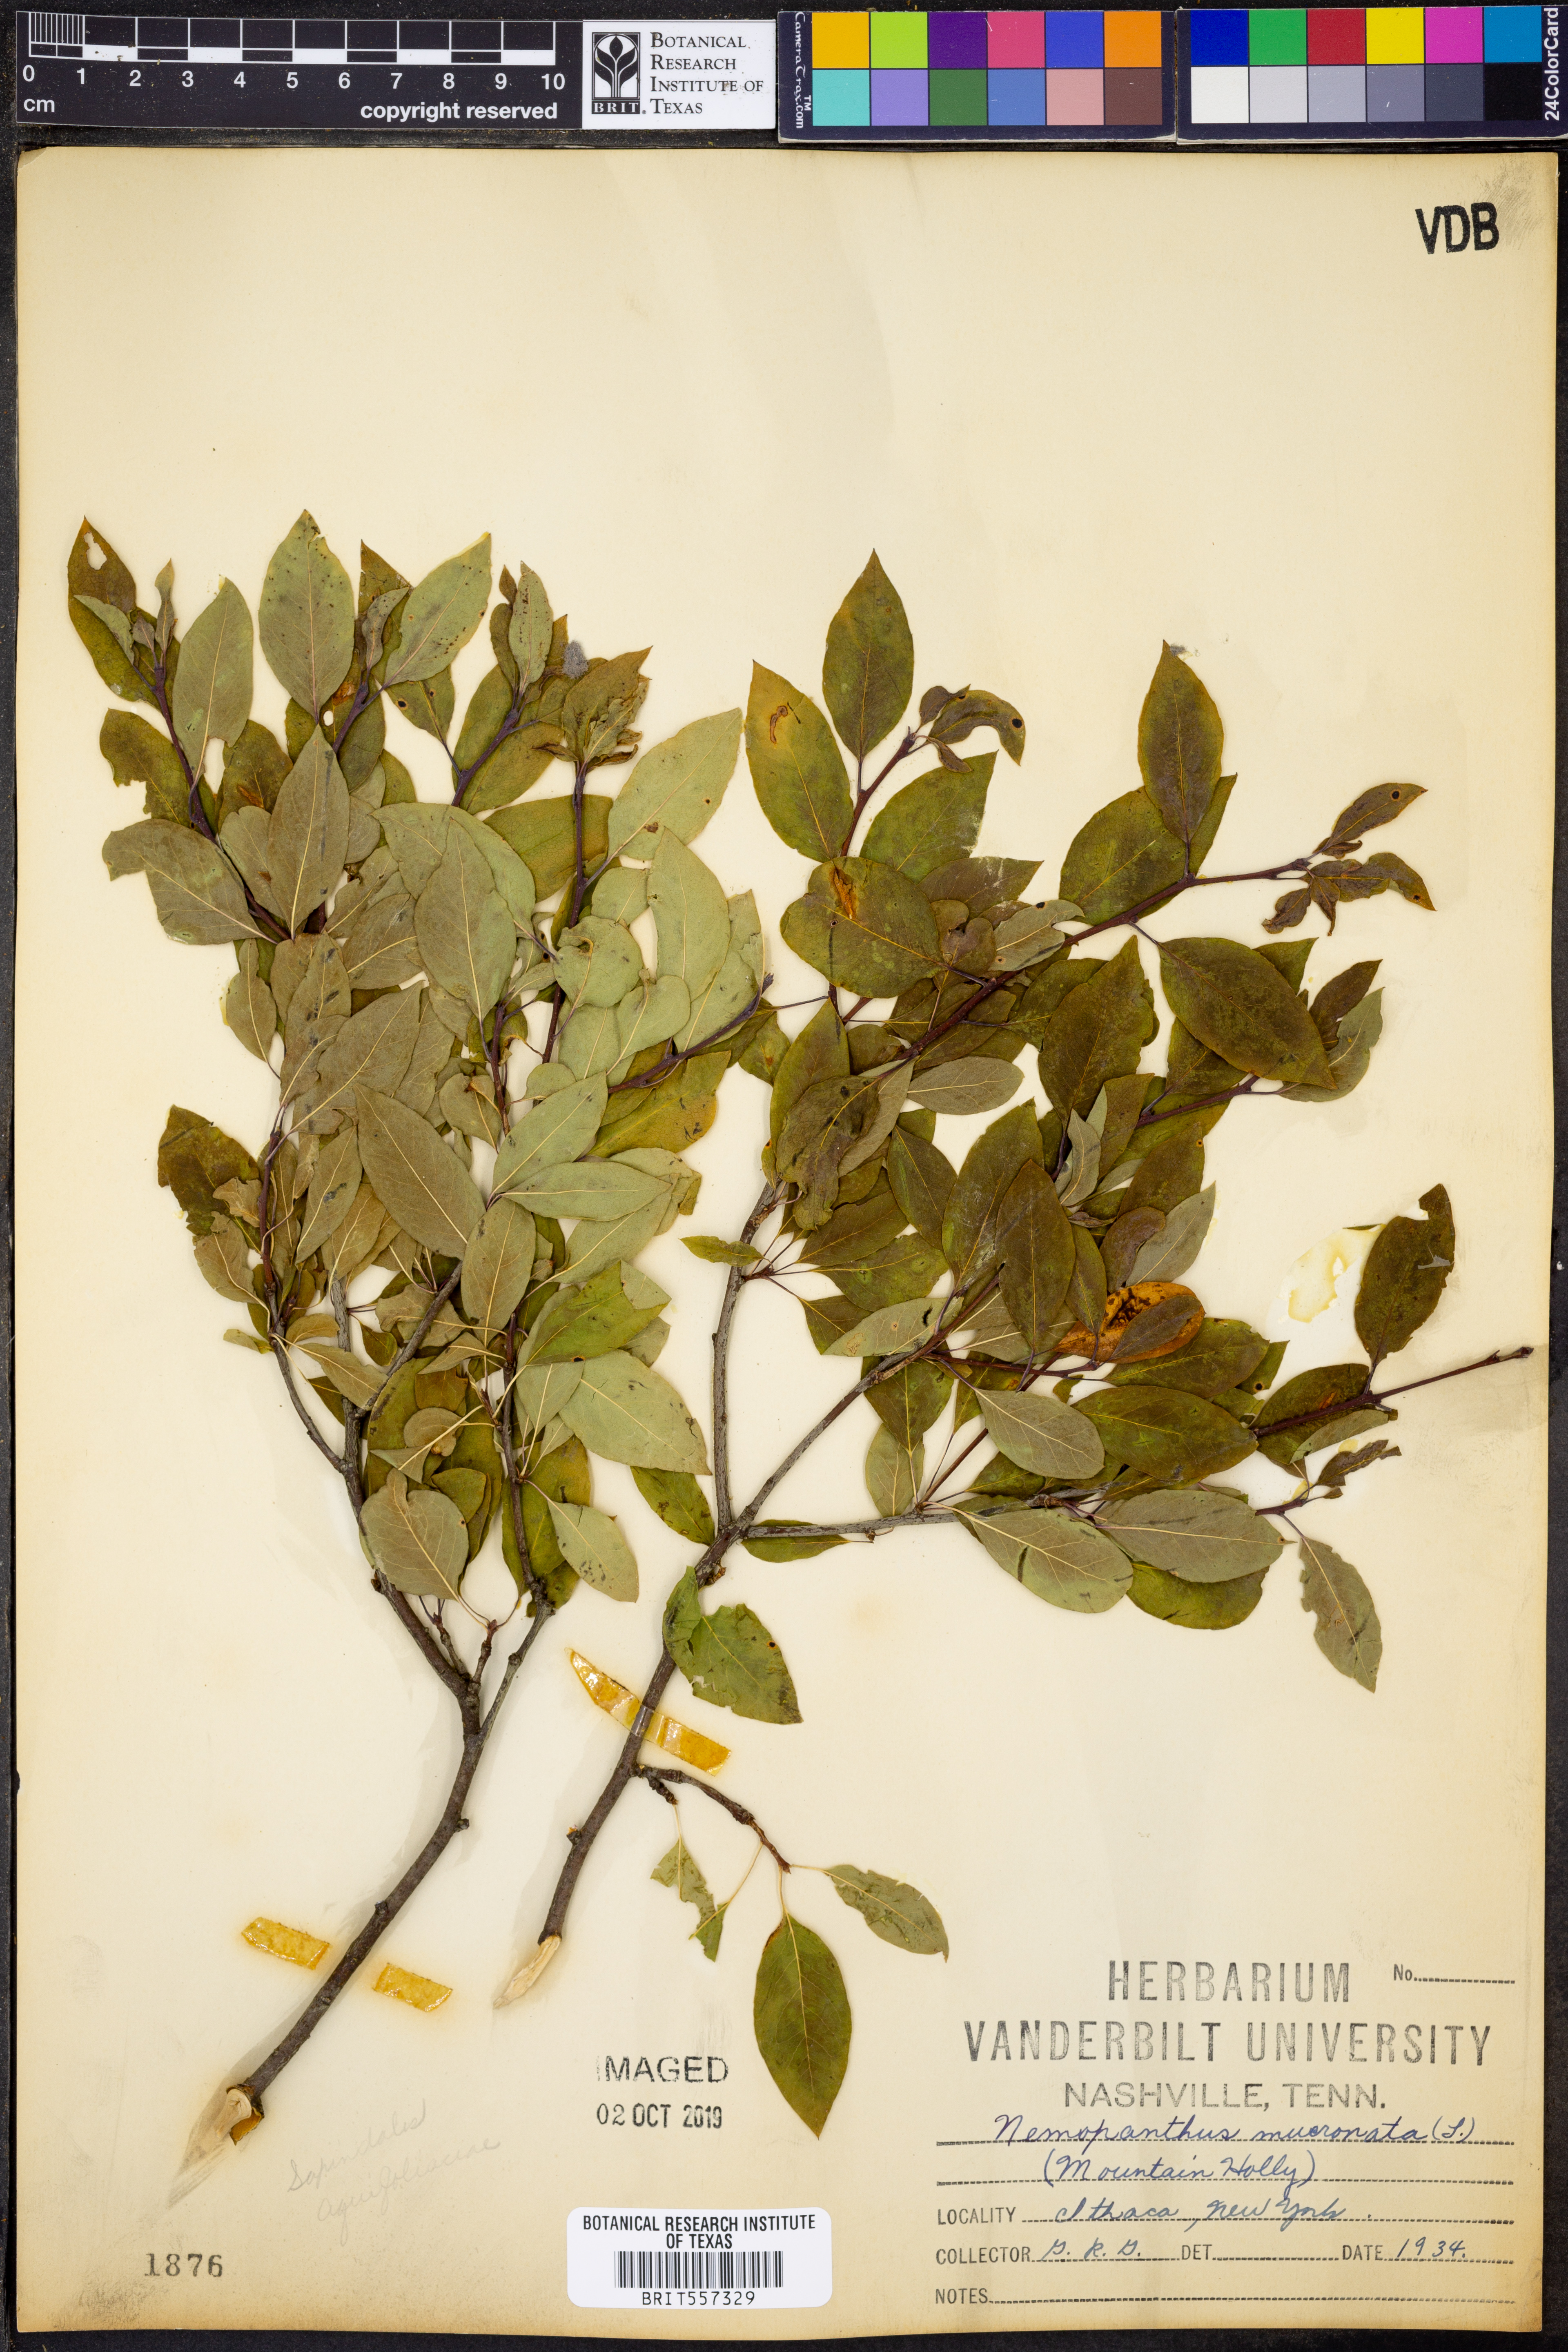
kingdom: Plantae
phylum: Tracheophyta
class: Magnoliopsida
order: Aquifoliales
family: Aquifoliaceae
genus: Ilex
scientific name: Ilex mucronata
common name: Catberry
